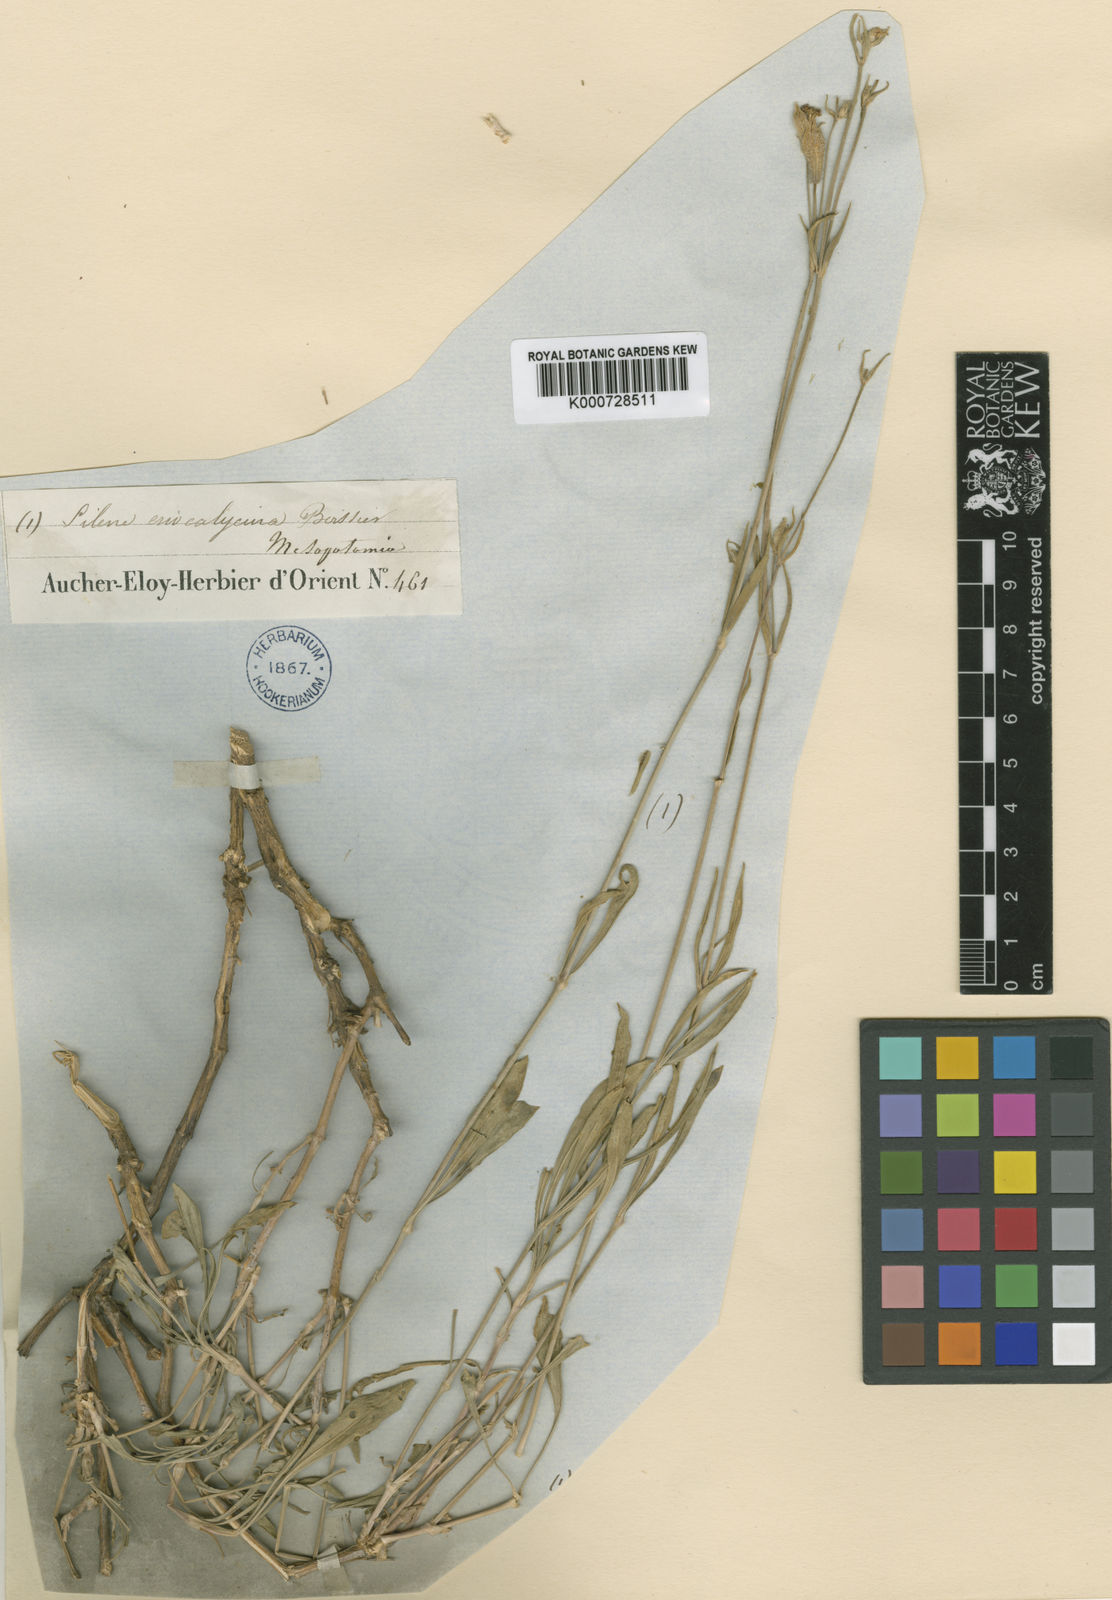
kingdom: Plantae
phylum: Tracheophyta
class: Magnoliopsida
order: Caryophyllales
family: Caryophyllaceae
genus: Silene
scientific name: Silene eriocalycina
